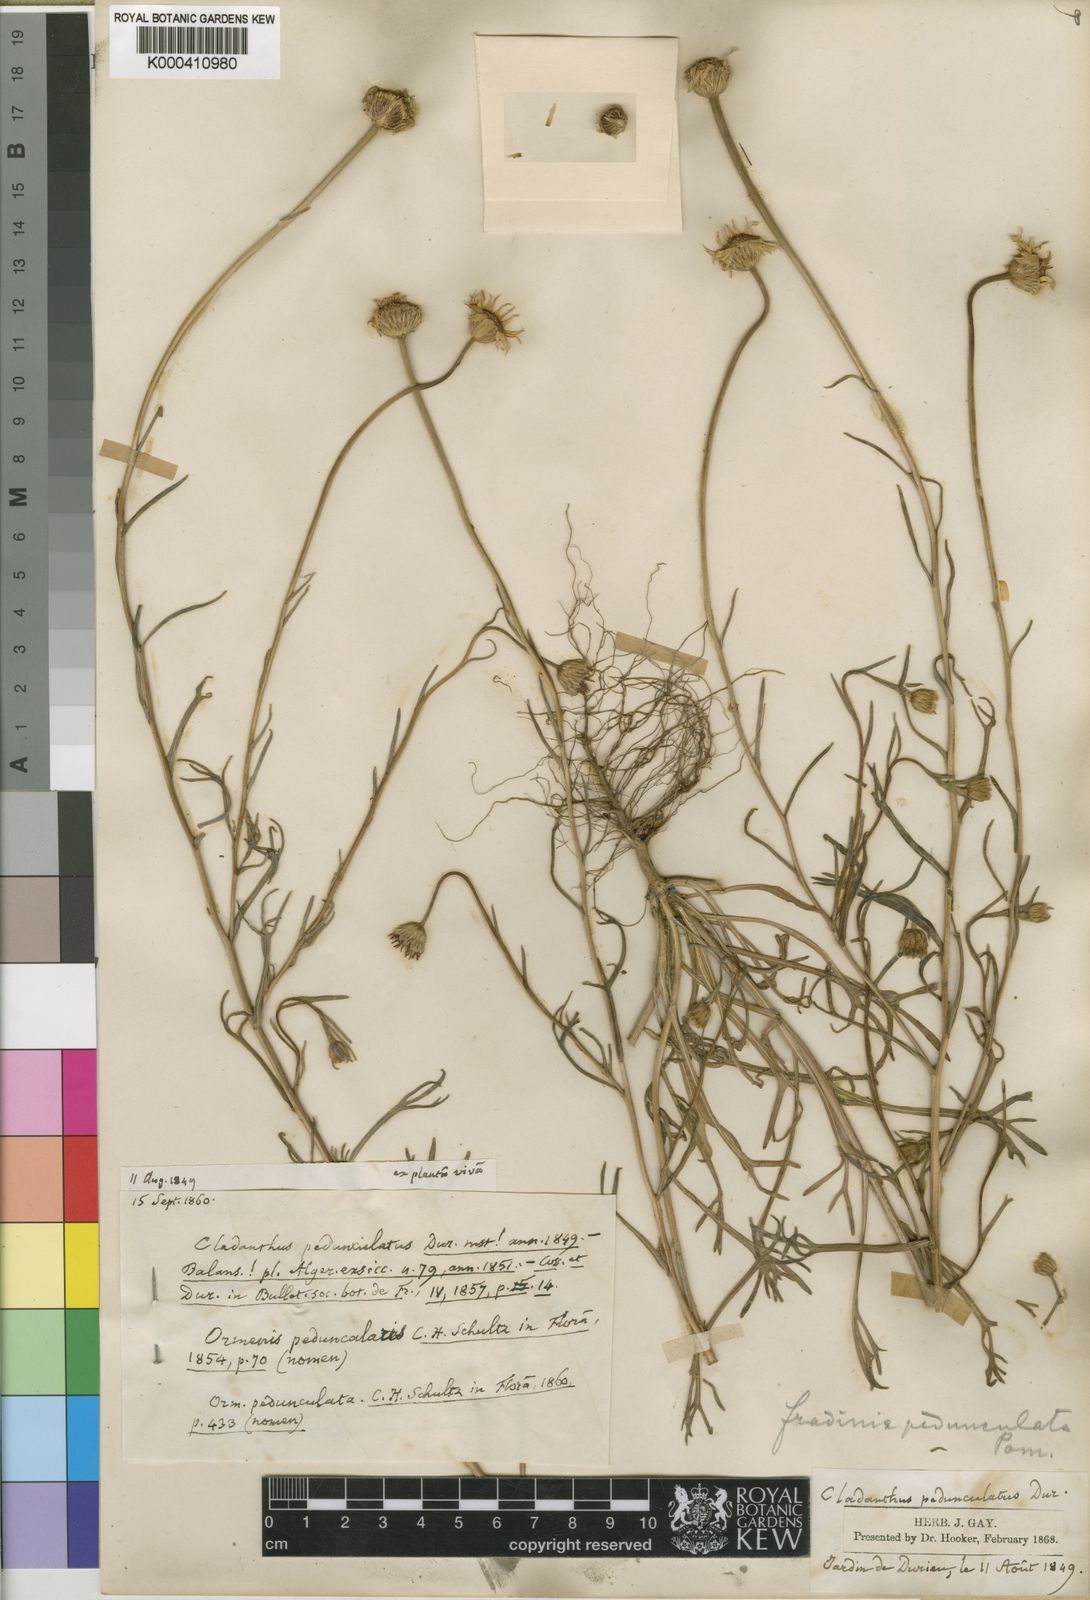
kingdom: Plantae
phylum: Tracheophyta
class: Magnoliopsida
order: Asterales
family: Asteraceae
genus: Mecomischus
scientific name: Mecomischus
